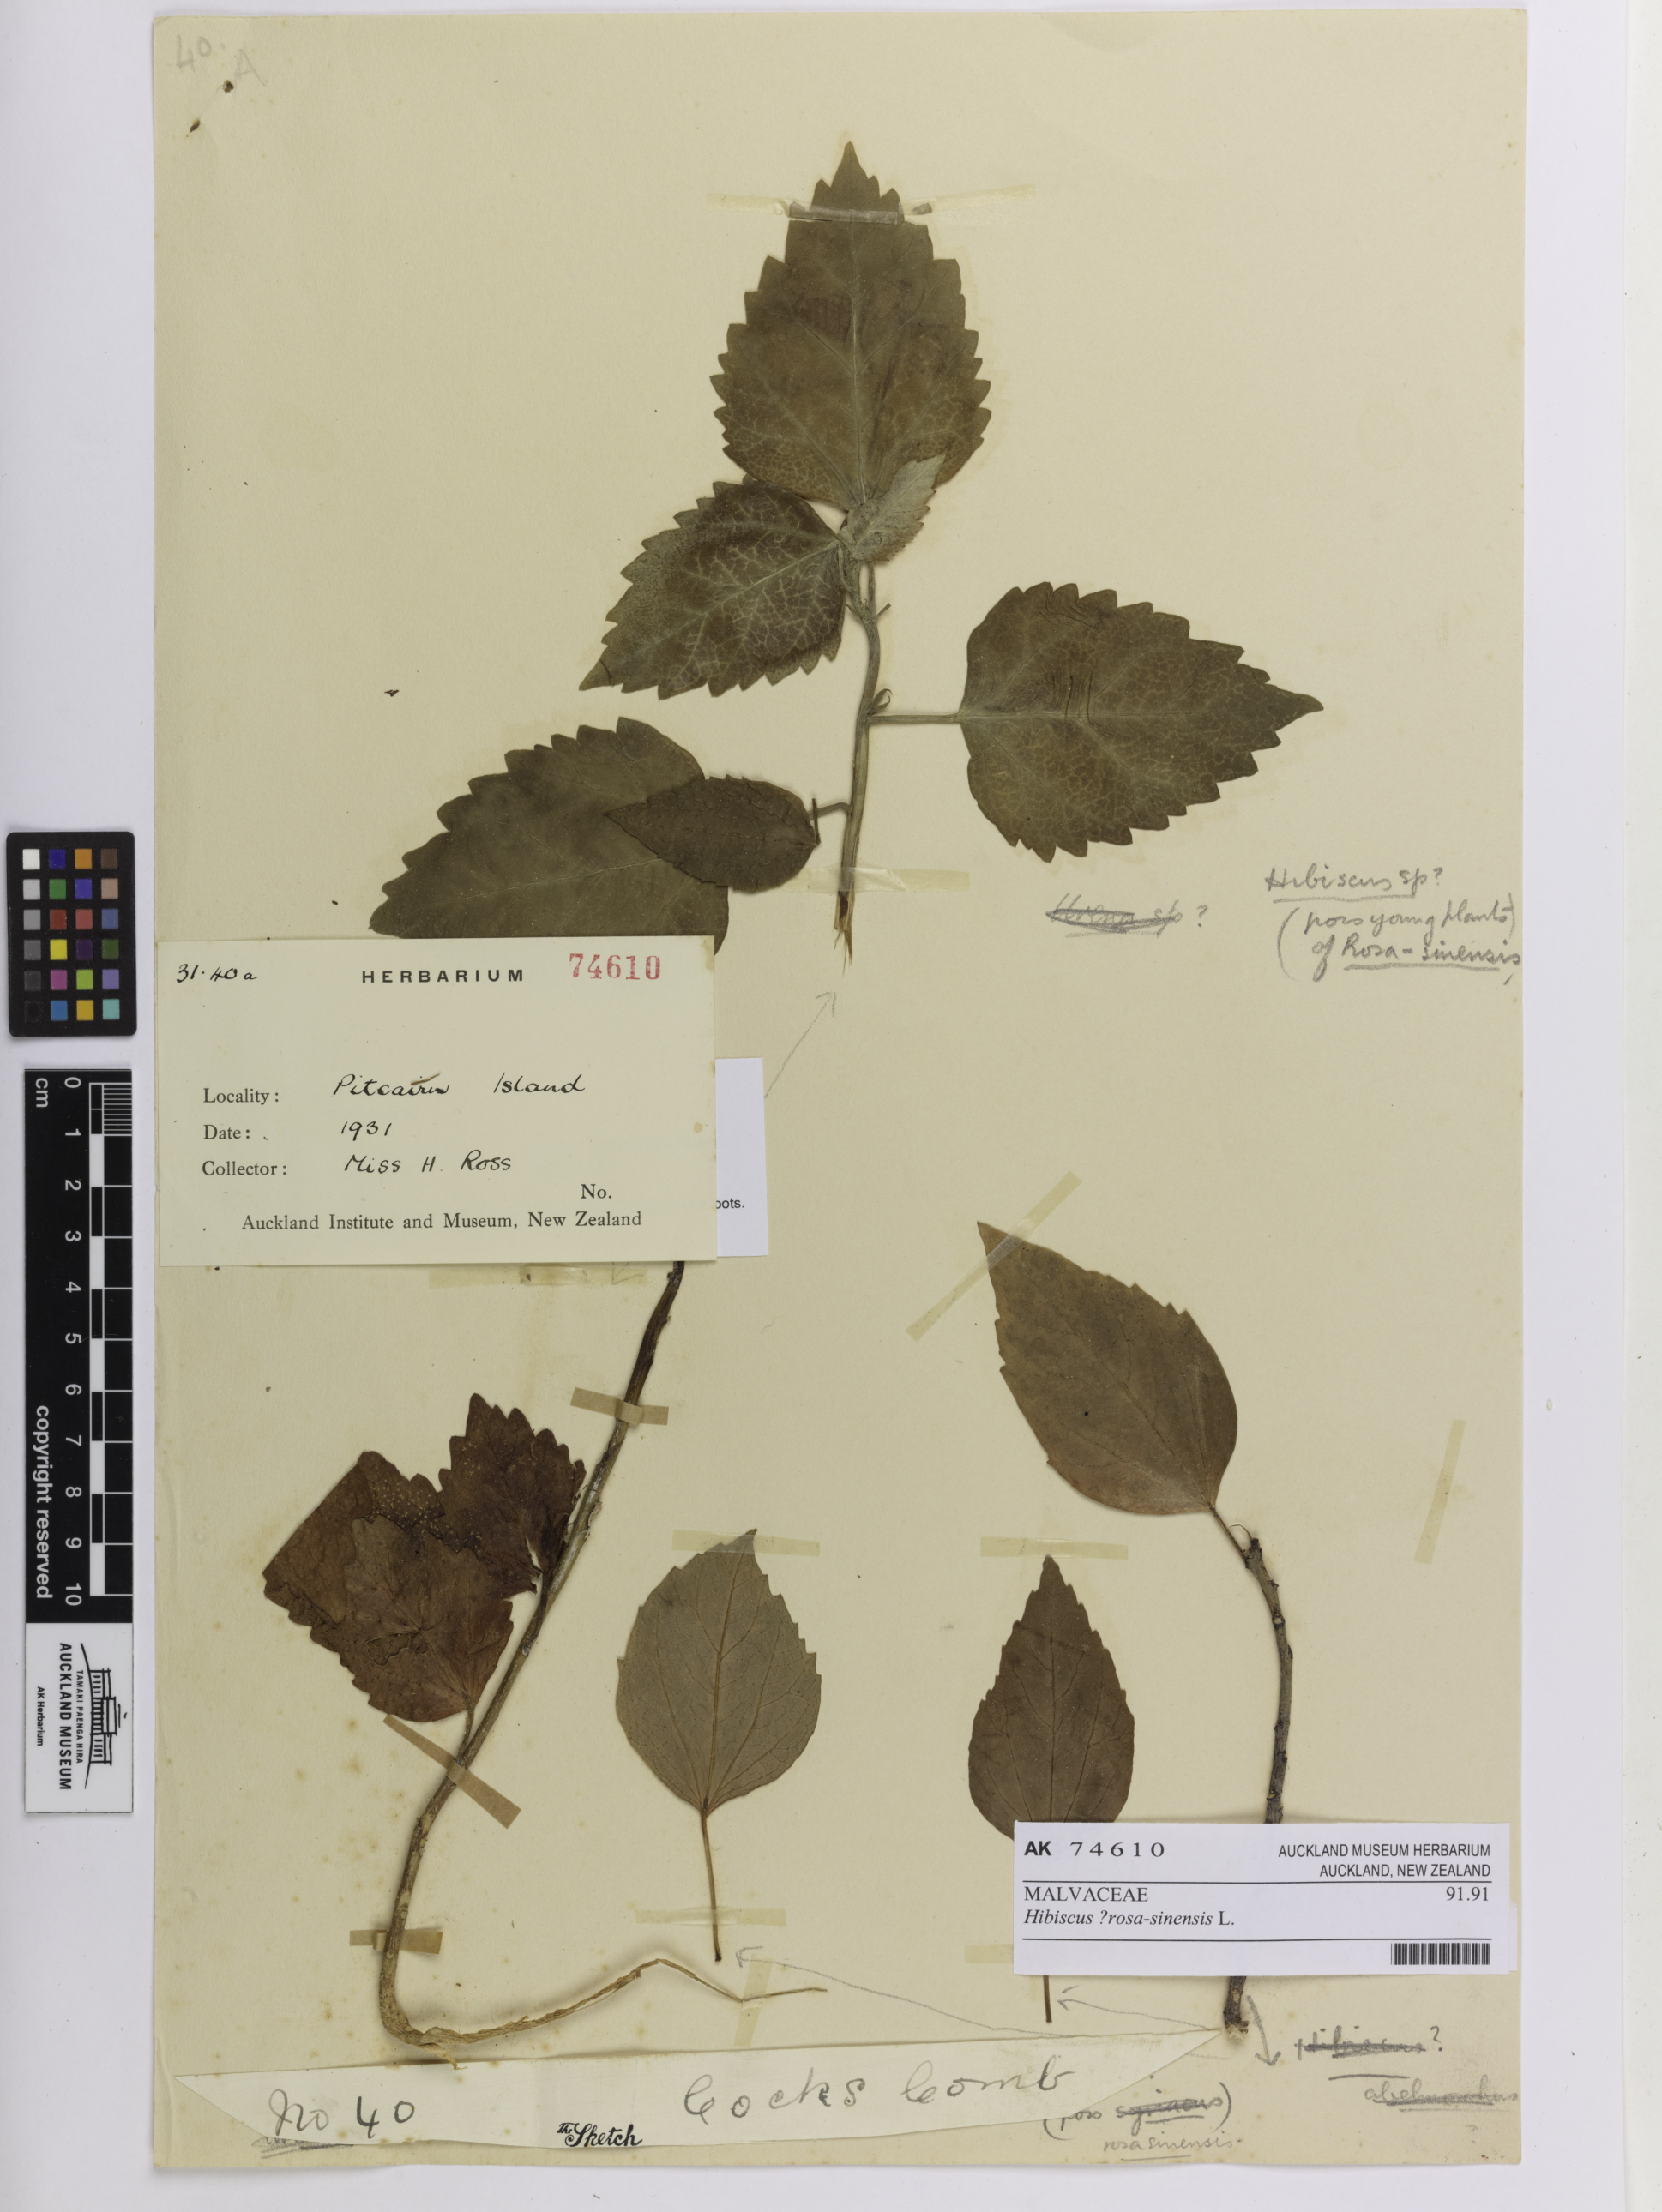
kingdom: Plantae
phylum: Tracheophyta
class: Magnoliopsida
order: Malvales
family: Malvaceae
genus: Hibiscus
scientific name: Hibiscus rosa-sinensis
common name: Hibiscus
